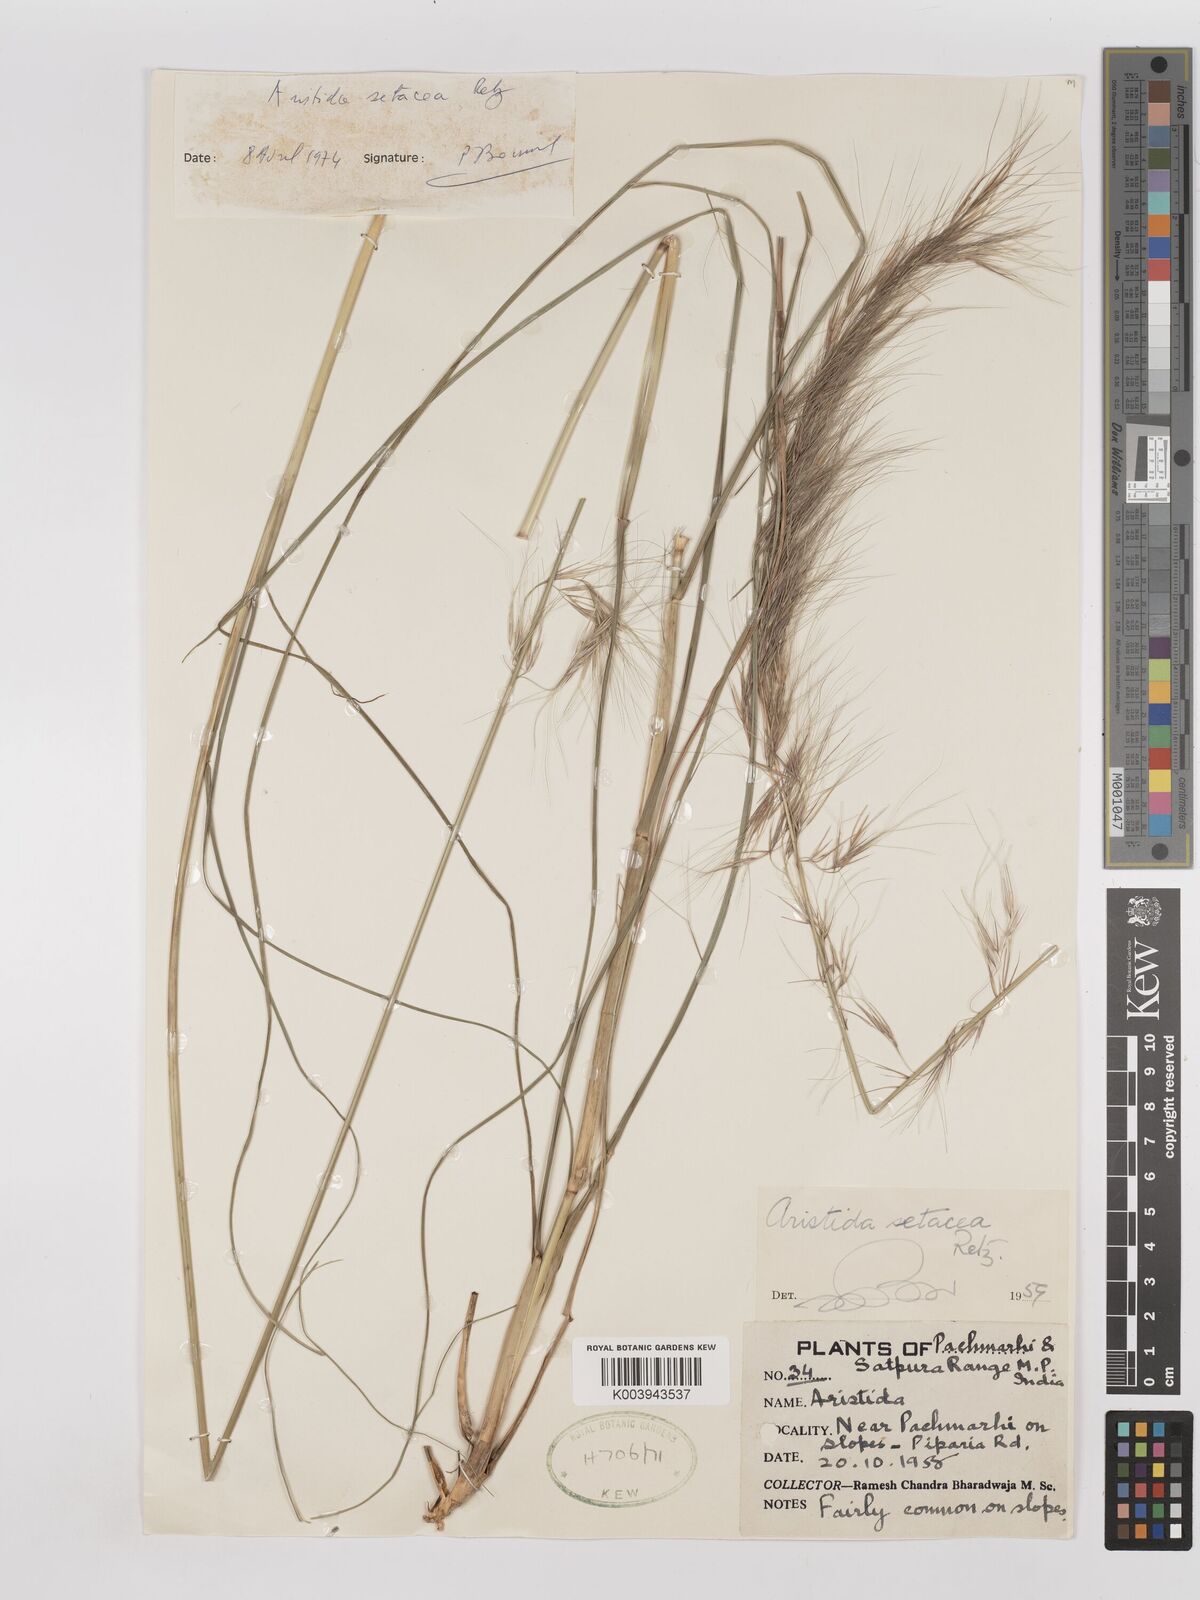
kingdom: Plantae
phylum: Tracheophyta
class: Liliopsida
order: Poales
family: Poaceae
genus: Aristida
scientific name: Aristida setacea
